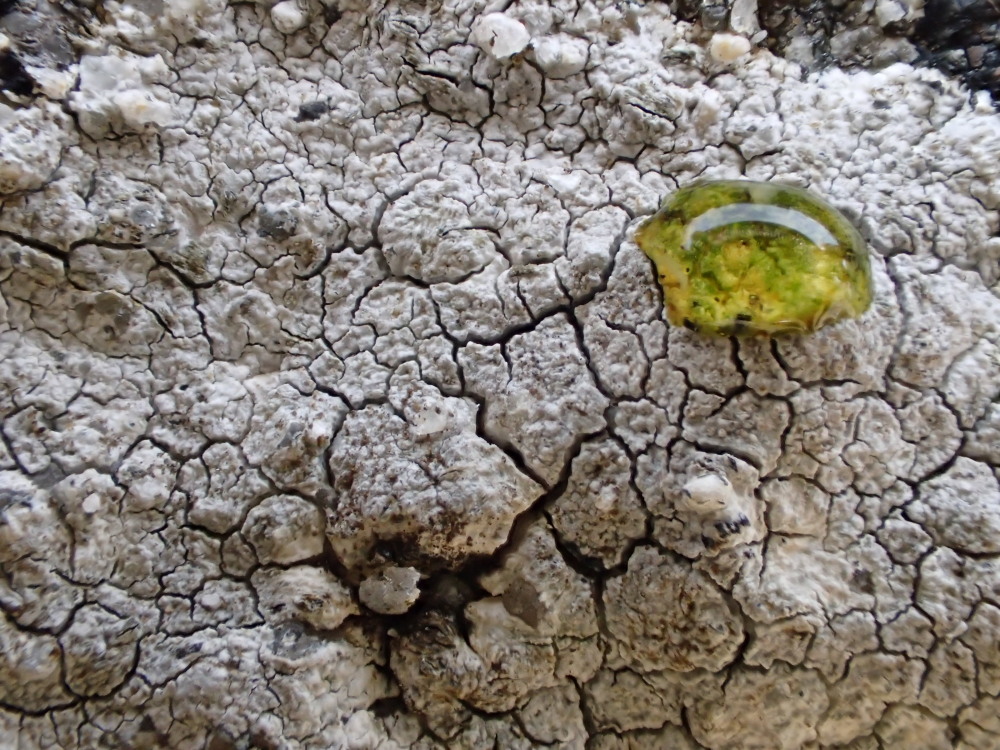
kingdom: Fungi
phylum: Ascomycota
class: Lecanoromycetes
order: Lecanorales
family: Lecanoraceae
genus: Glaucomaria
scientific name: Glaucomaria rupicola
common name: stengærde-kantskivelav
